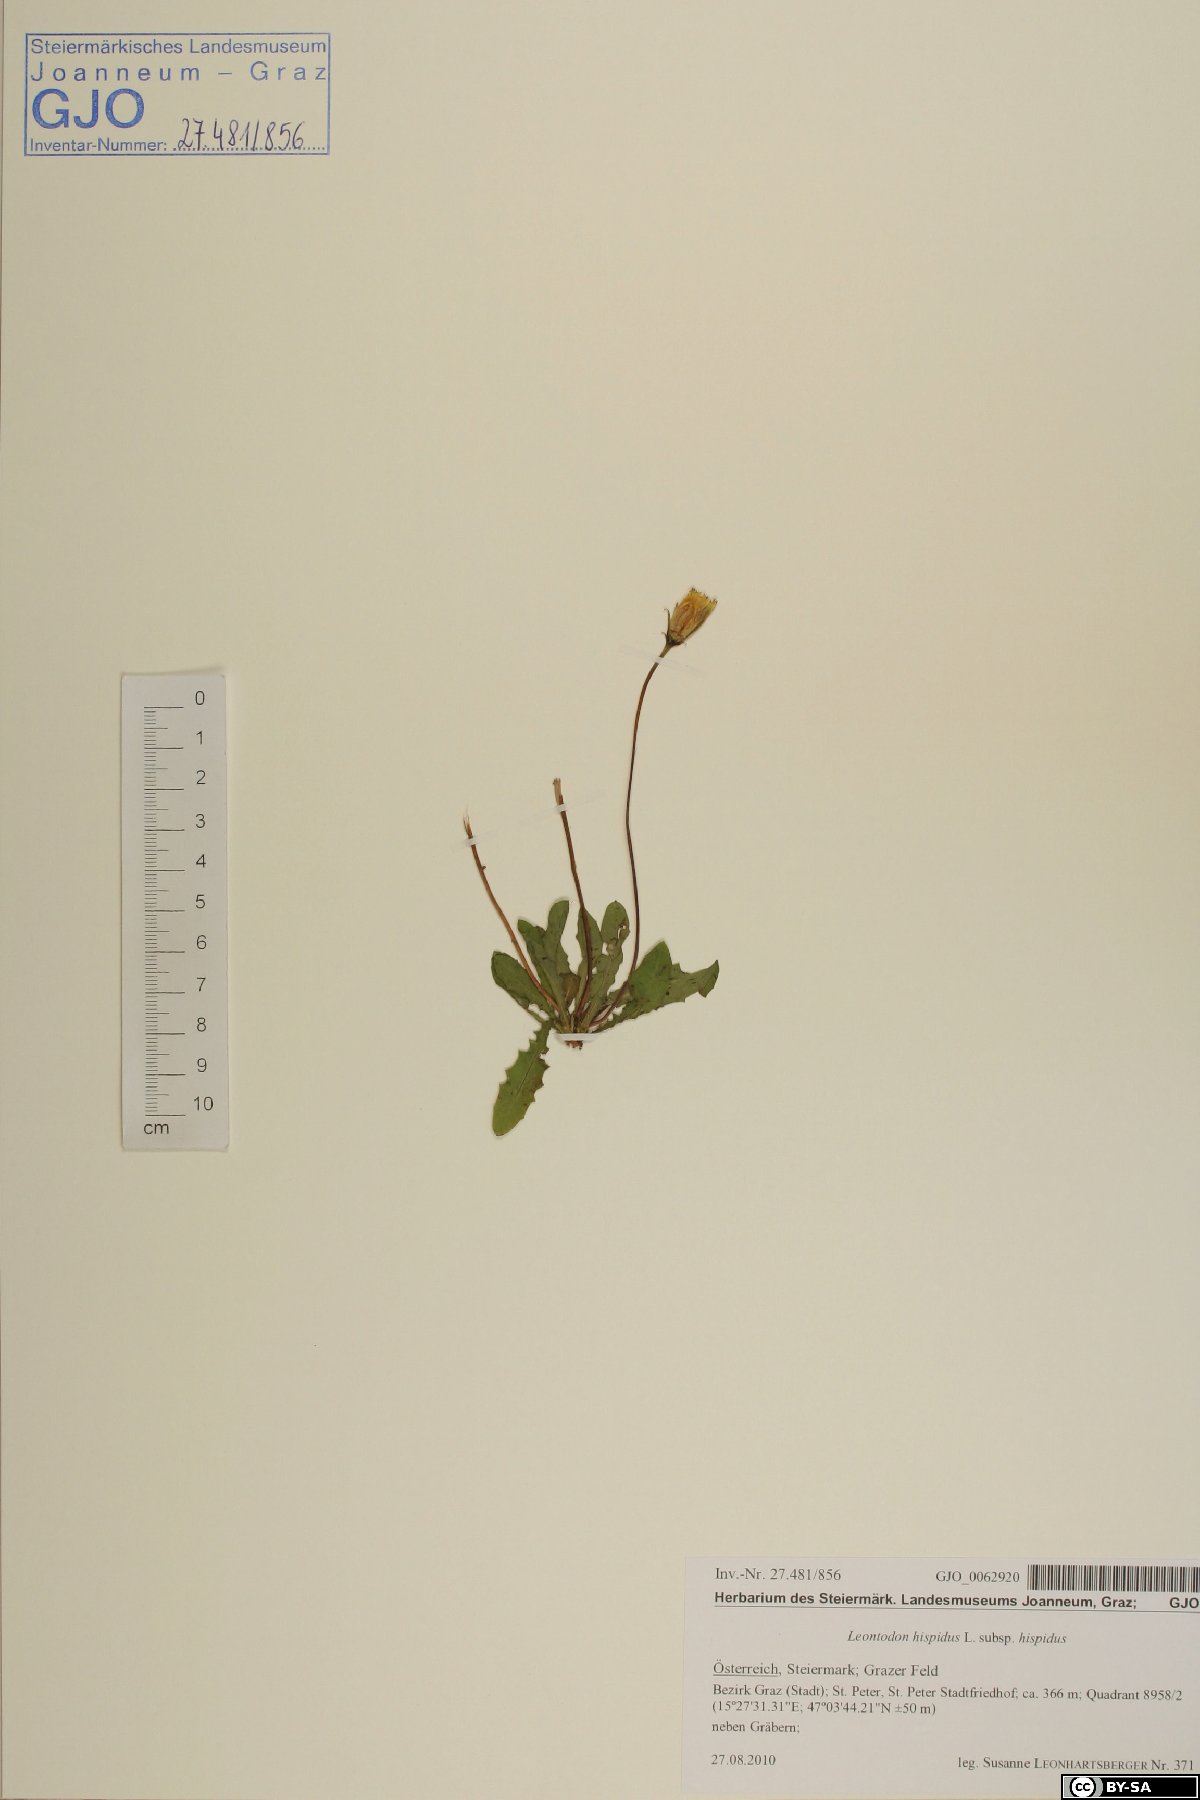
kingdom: Plantae
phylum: Tracheophyta
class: Magnoliopsida
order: Asterales
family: Asteraceae
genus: Leontodon
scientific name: Leontodon hispidus
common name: Rough hawkbit
